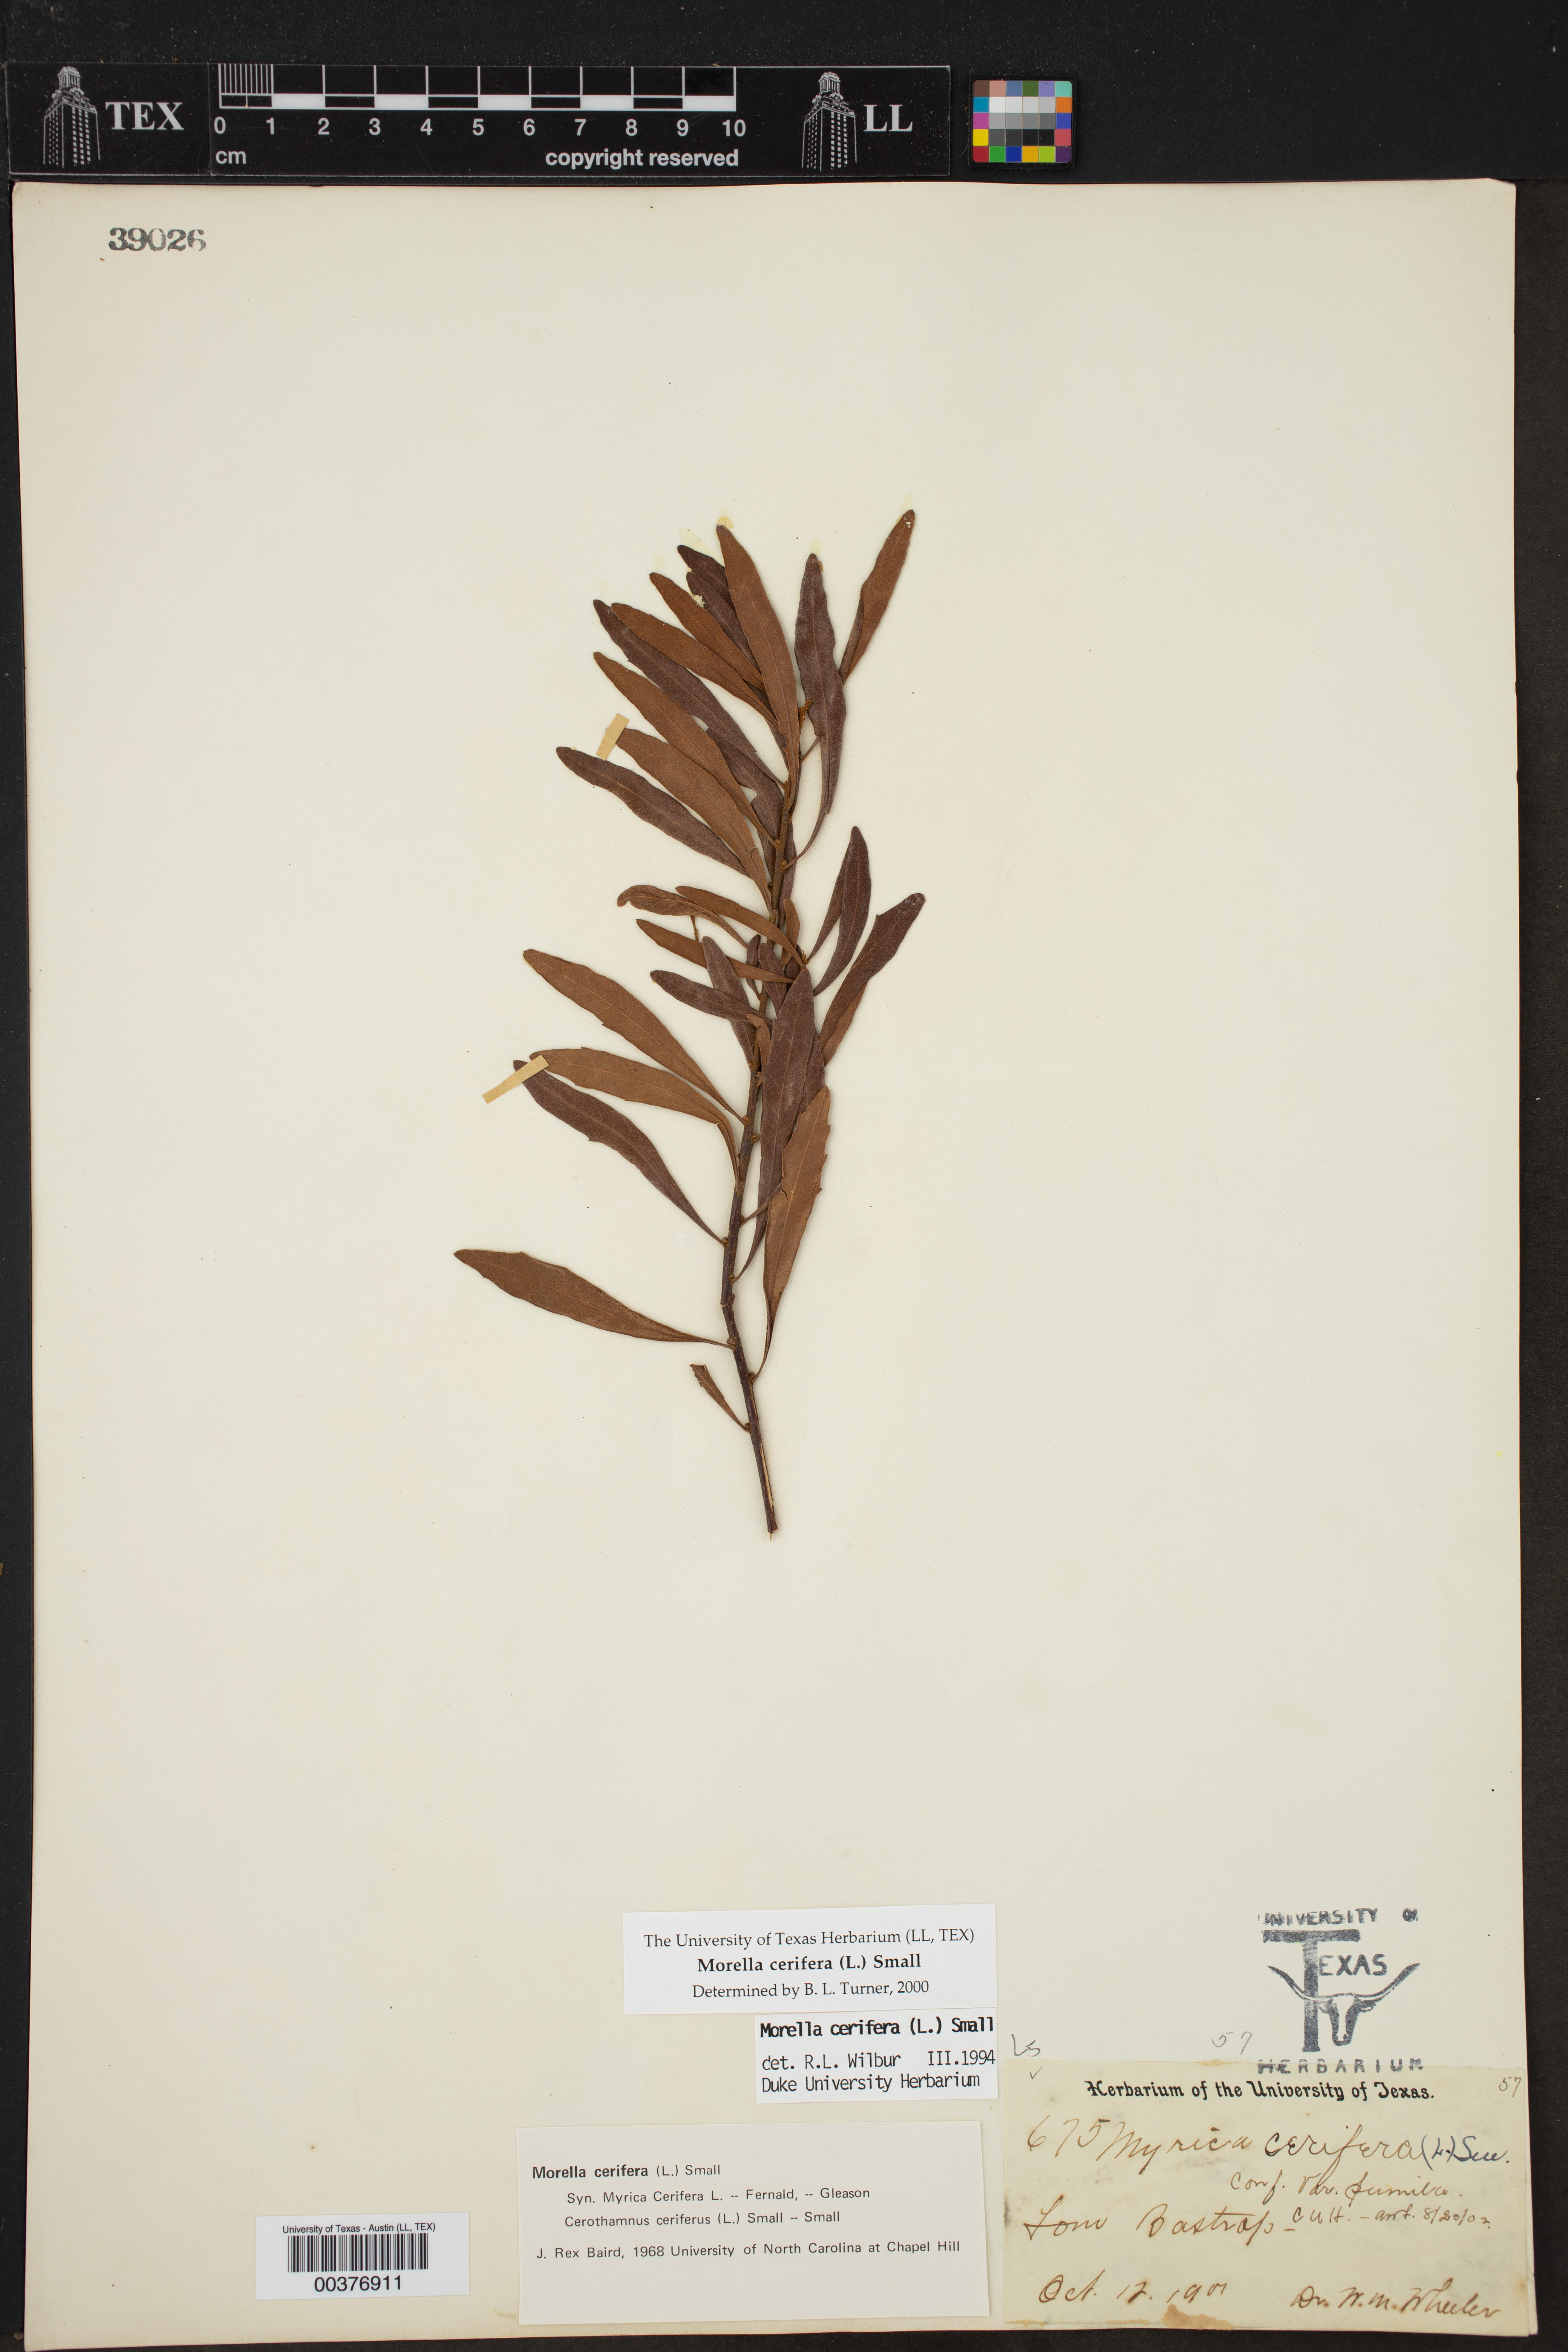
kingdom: Plantae
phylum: Tracheophyta
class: Magnoliopsida
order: Fagales
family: Myricaceae
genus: Morella
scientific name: Morella cerifera
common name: Wax myrtle
